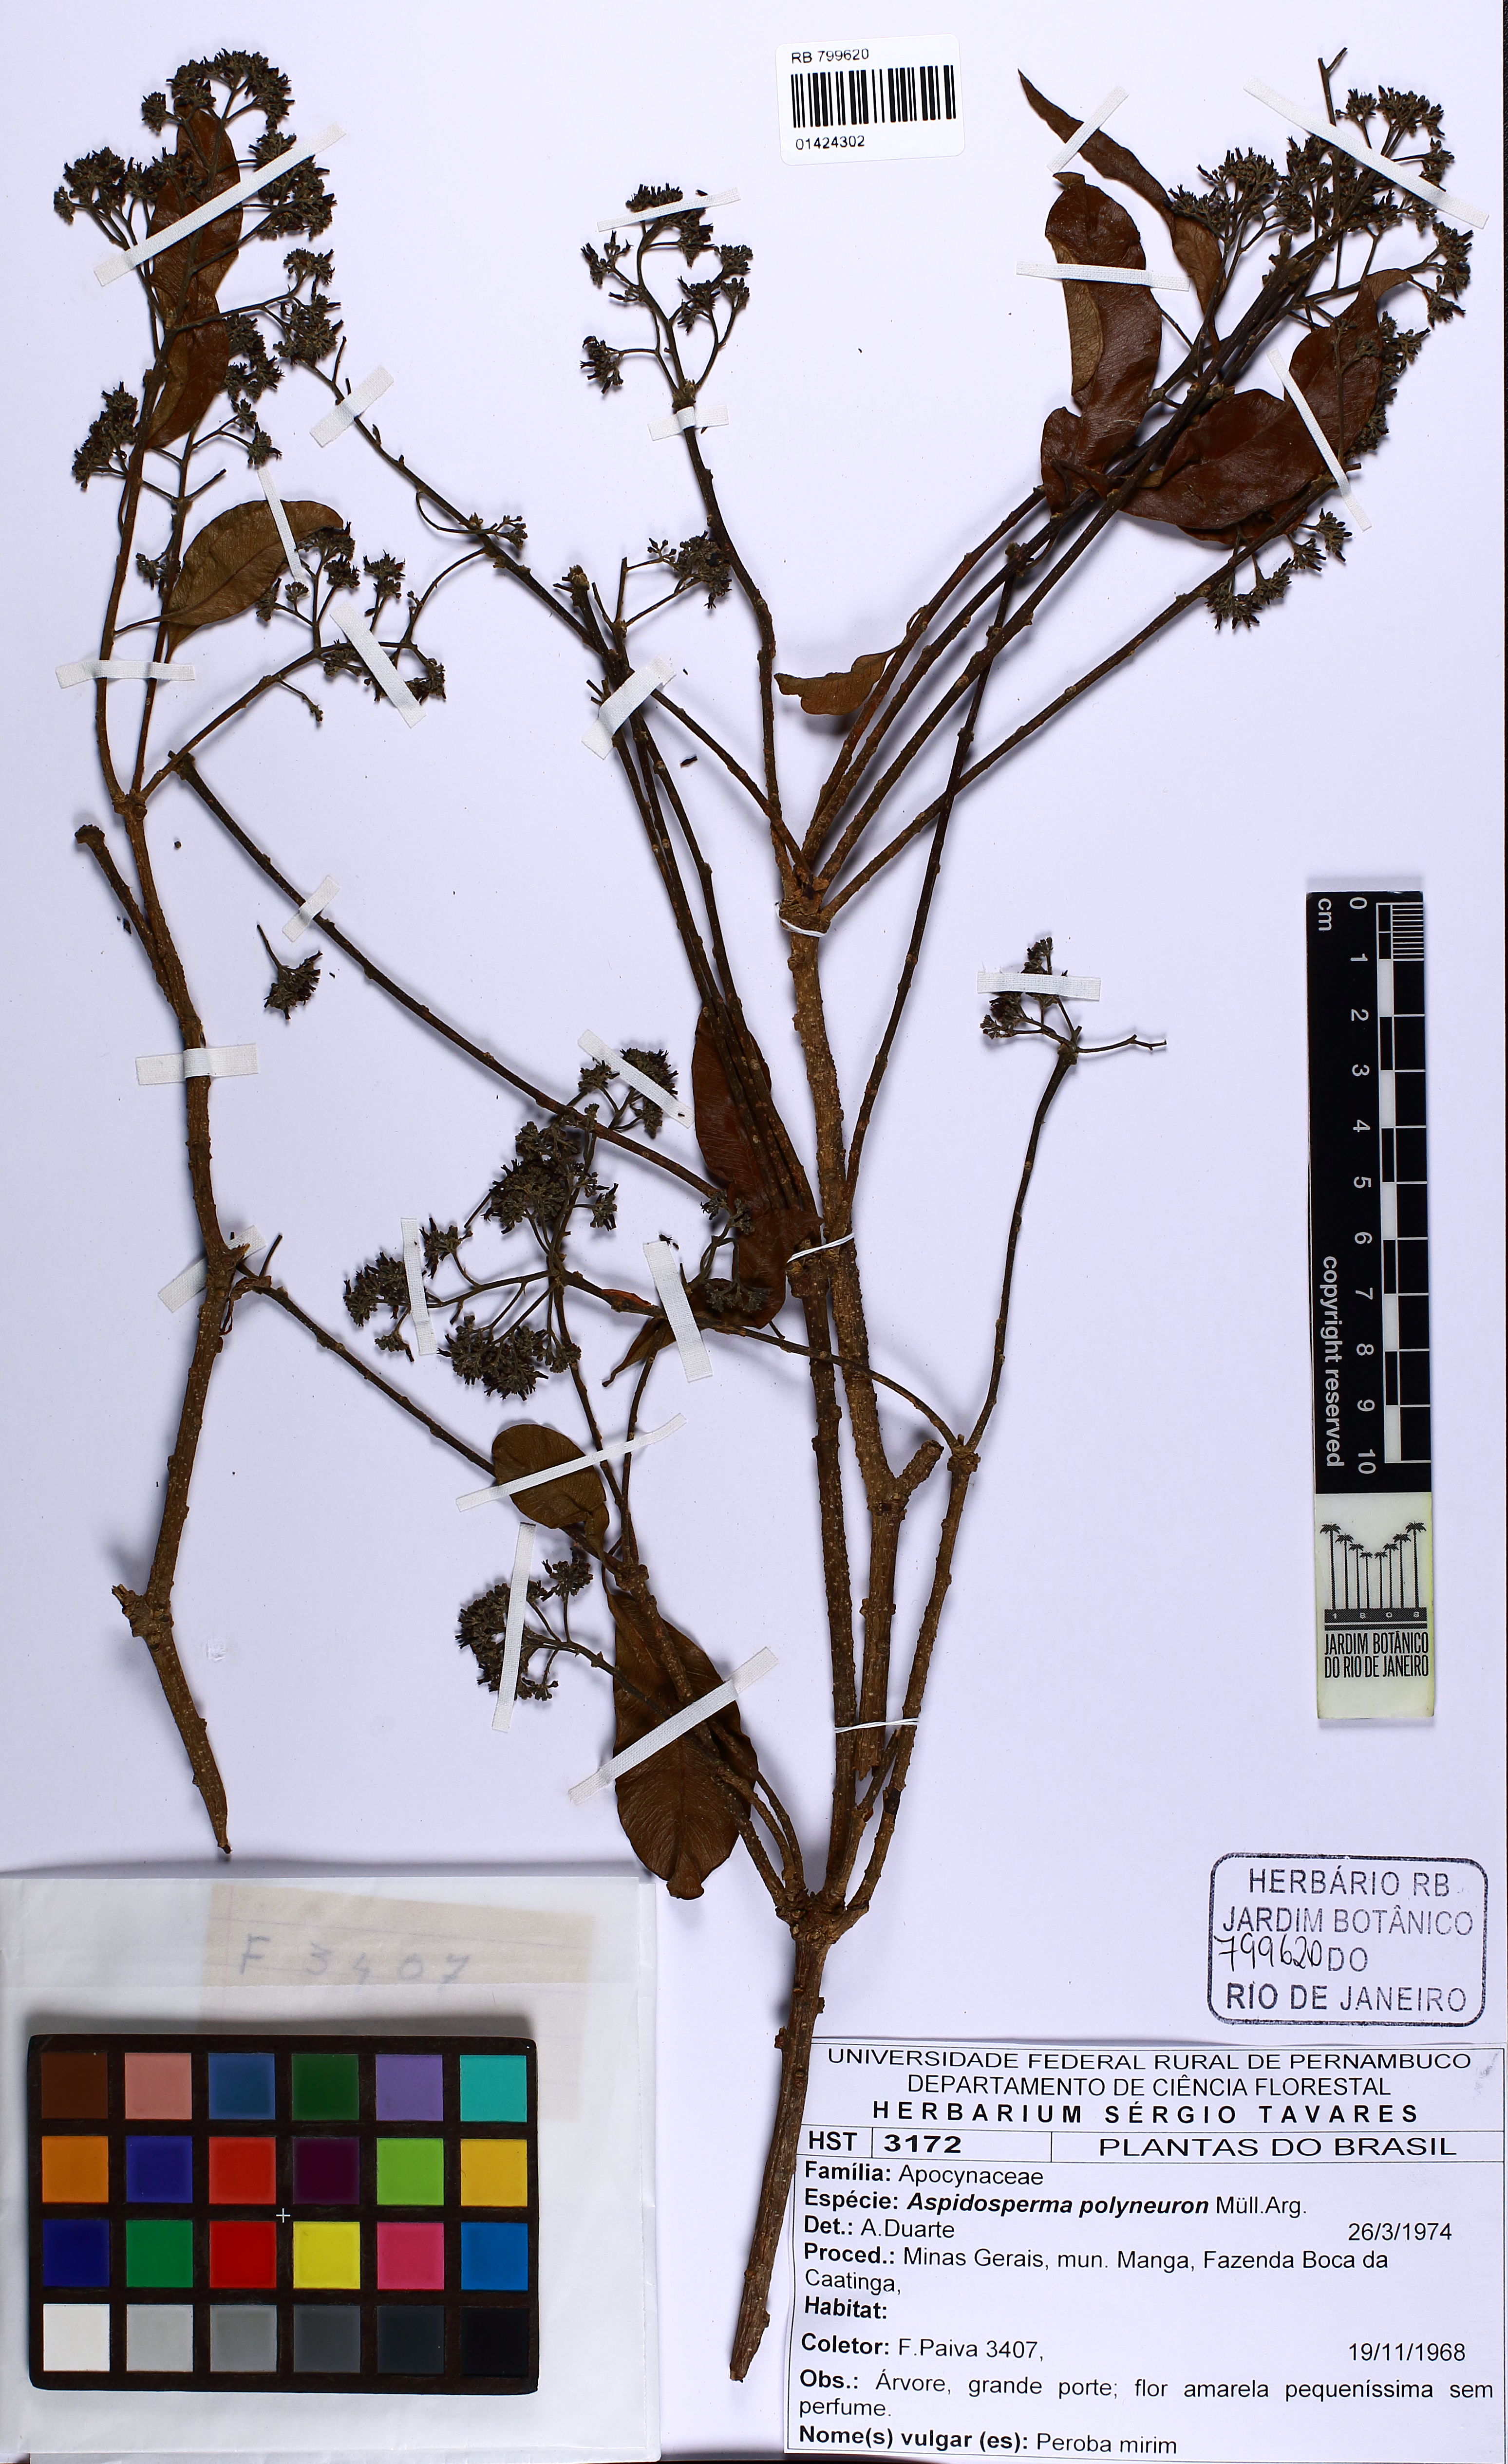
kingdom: Plantae
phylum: Tracheophyta
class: Magnoliopsida
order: Gentianales
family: Apocynaceae
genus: Aspidosperma
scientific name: Aspidosperma polyneuron
